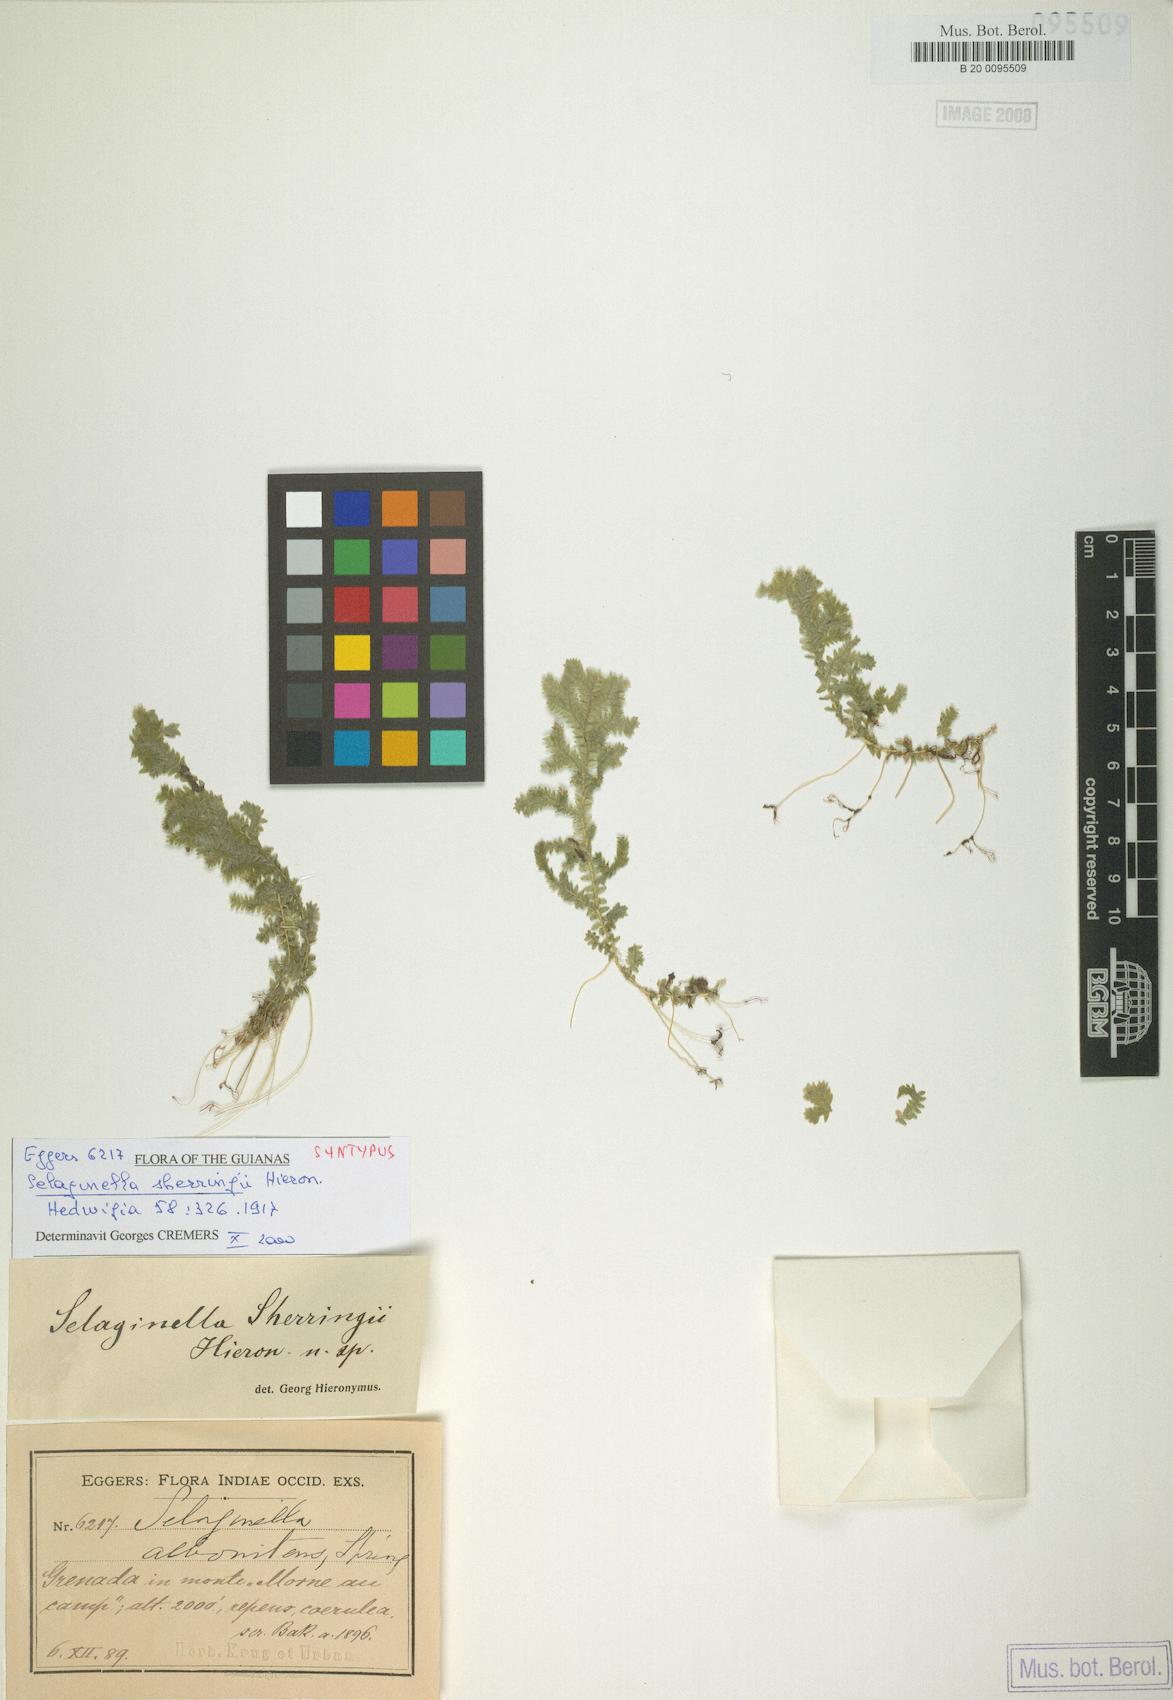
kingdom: Plantae
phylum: Tracheophyta
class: Lycopodiopsida
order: Selaginellales
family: Selaginellaceae
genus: Selaginella
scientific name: Selaginella substipitata
